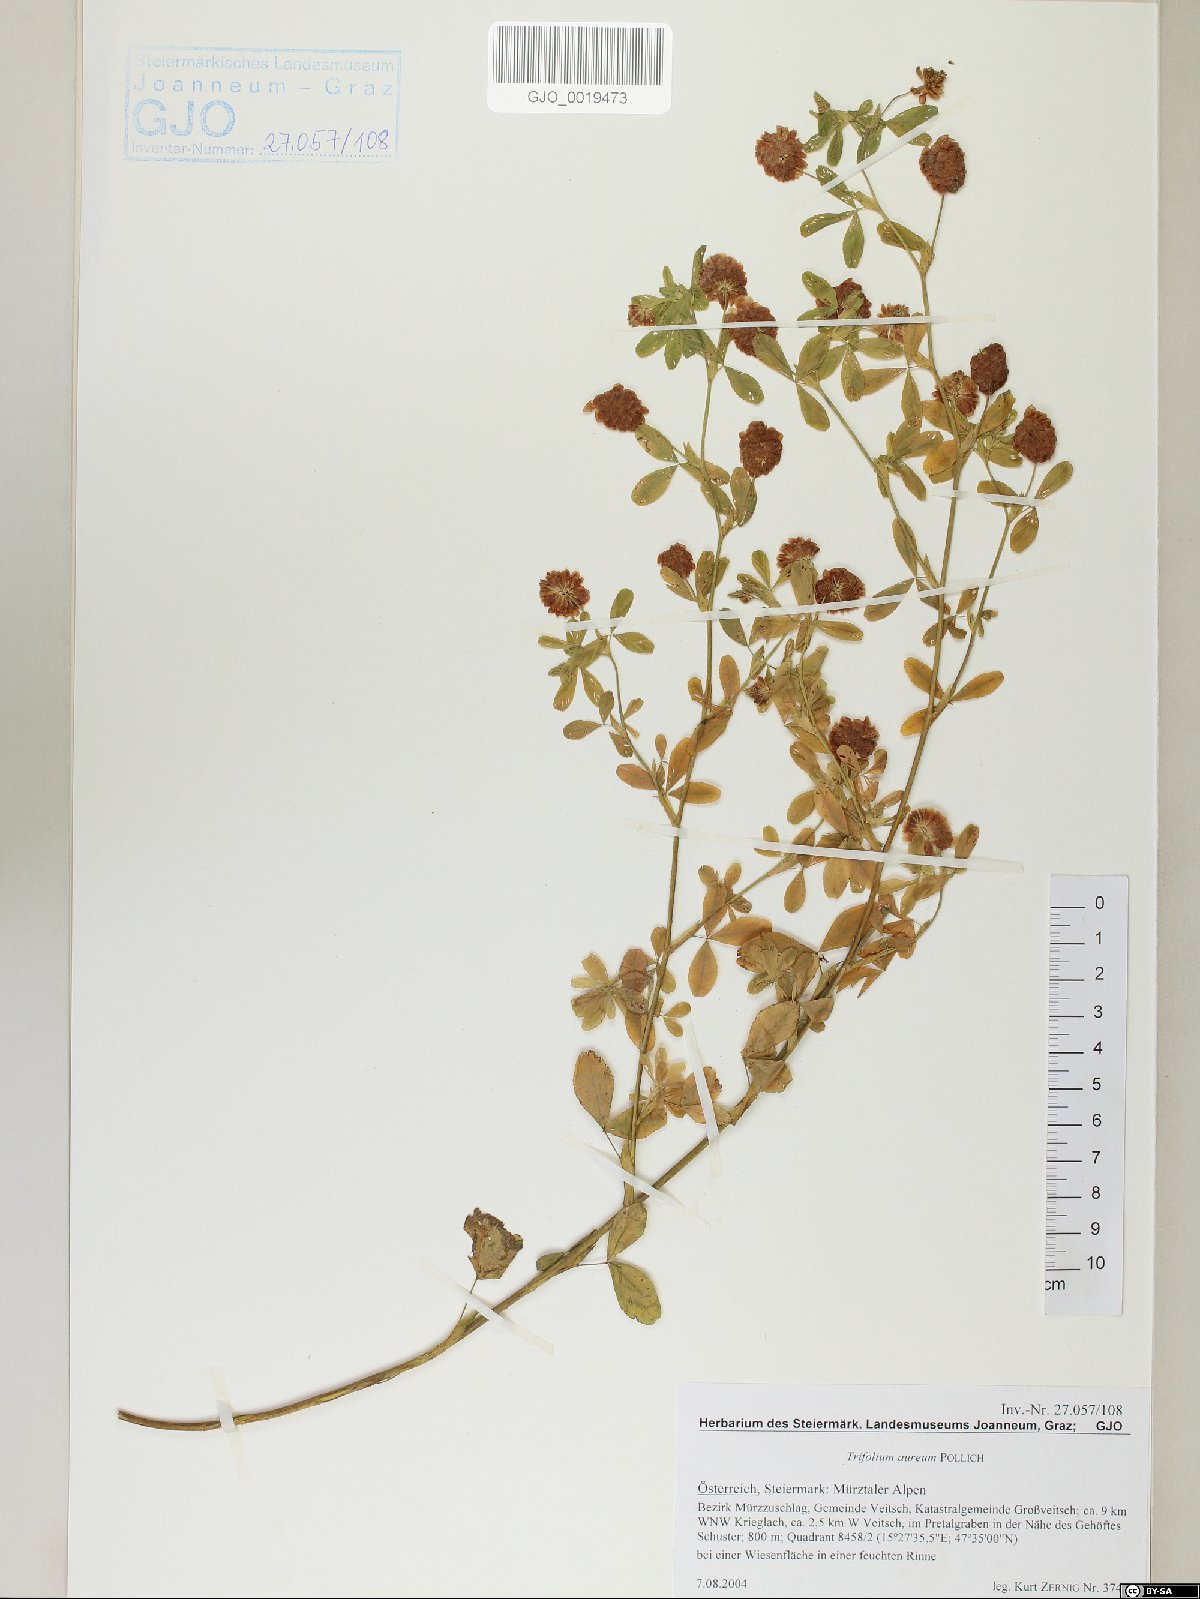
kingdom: Plantae
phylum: Tracheophyta
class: Magnoliopsida
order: Fabales
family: Fabaceae
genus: Trifolium
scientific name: Trifolium aureum
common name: Golden clover
